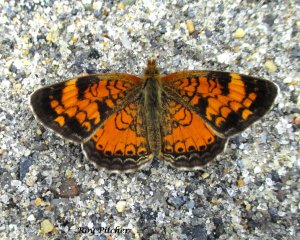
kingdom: Animalia
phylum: Arthropoda
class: Insecta
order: Lepidoptera
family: Nymphalidae
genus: Phyciodes
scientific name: Phyciodes tharos
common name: Northern Crescent
